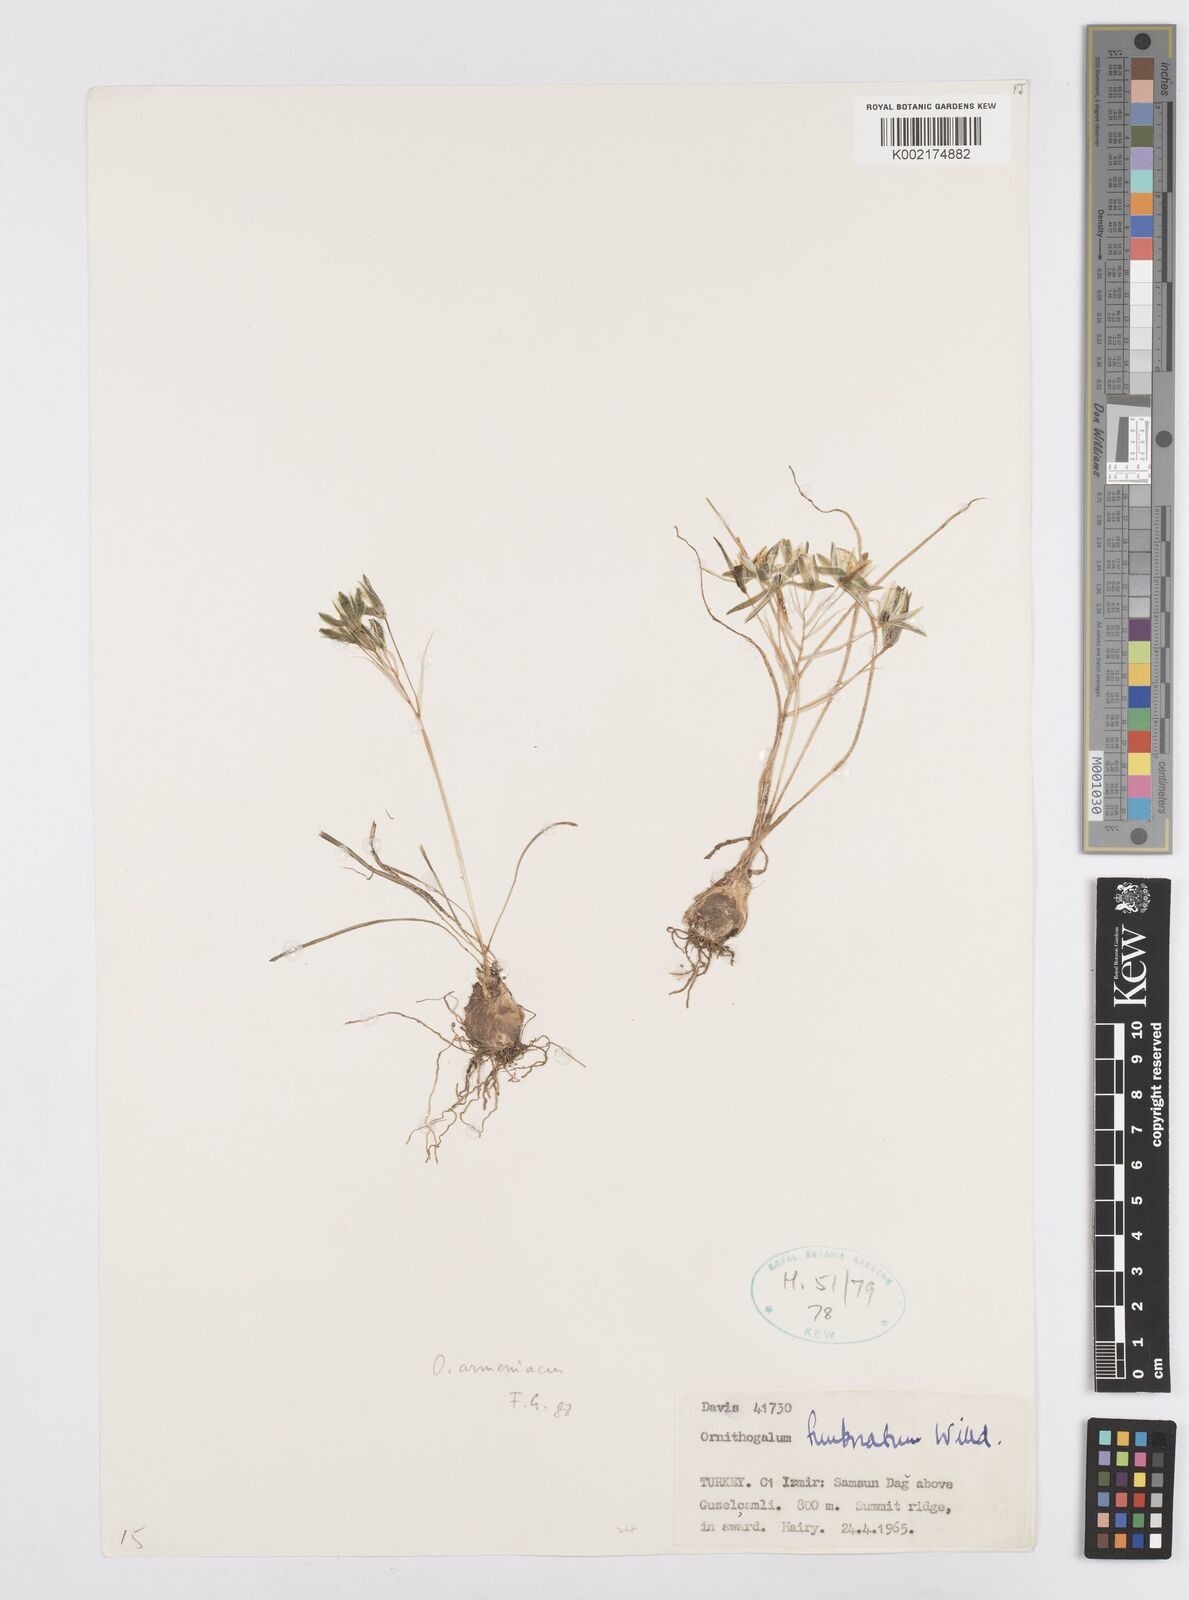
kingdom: Plantae
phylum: Tracheophyta
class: Liliopsida
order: Asparagales
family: Asparagaceae
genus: Ornithogalum
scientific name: Ornithogalum armeniacum
